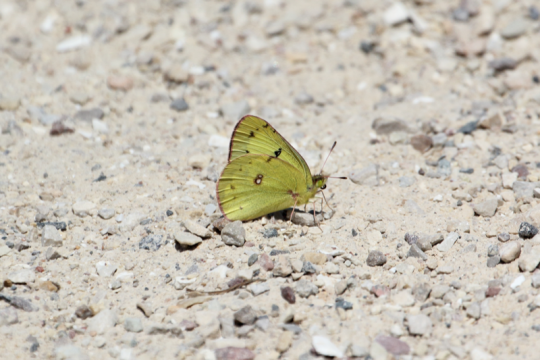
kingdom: Animalia
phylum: Arthropoda
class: Insecta
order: Lepidoptera
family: Pieridae
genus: Colias
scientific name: Colias philodice
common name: Clouded Sulphur
